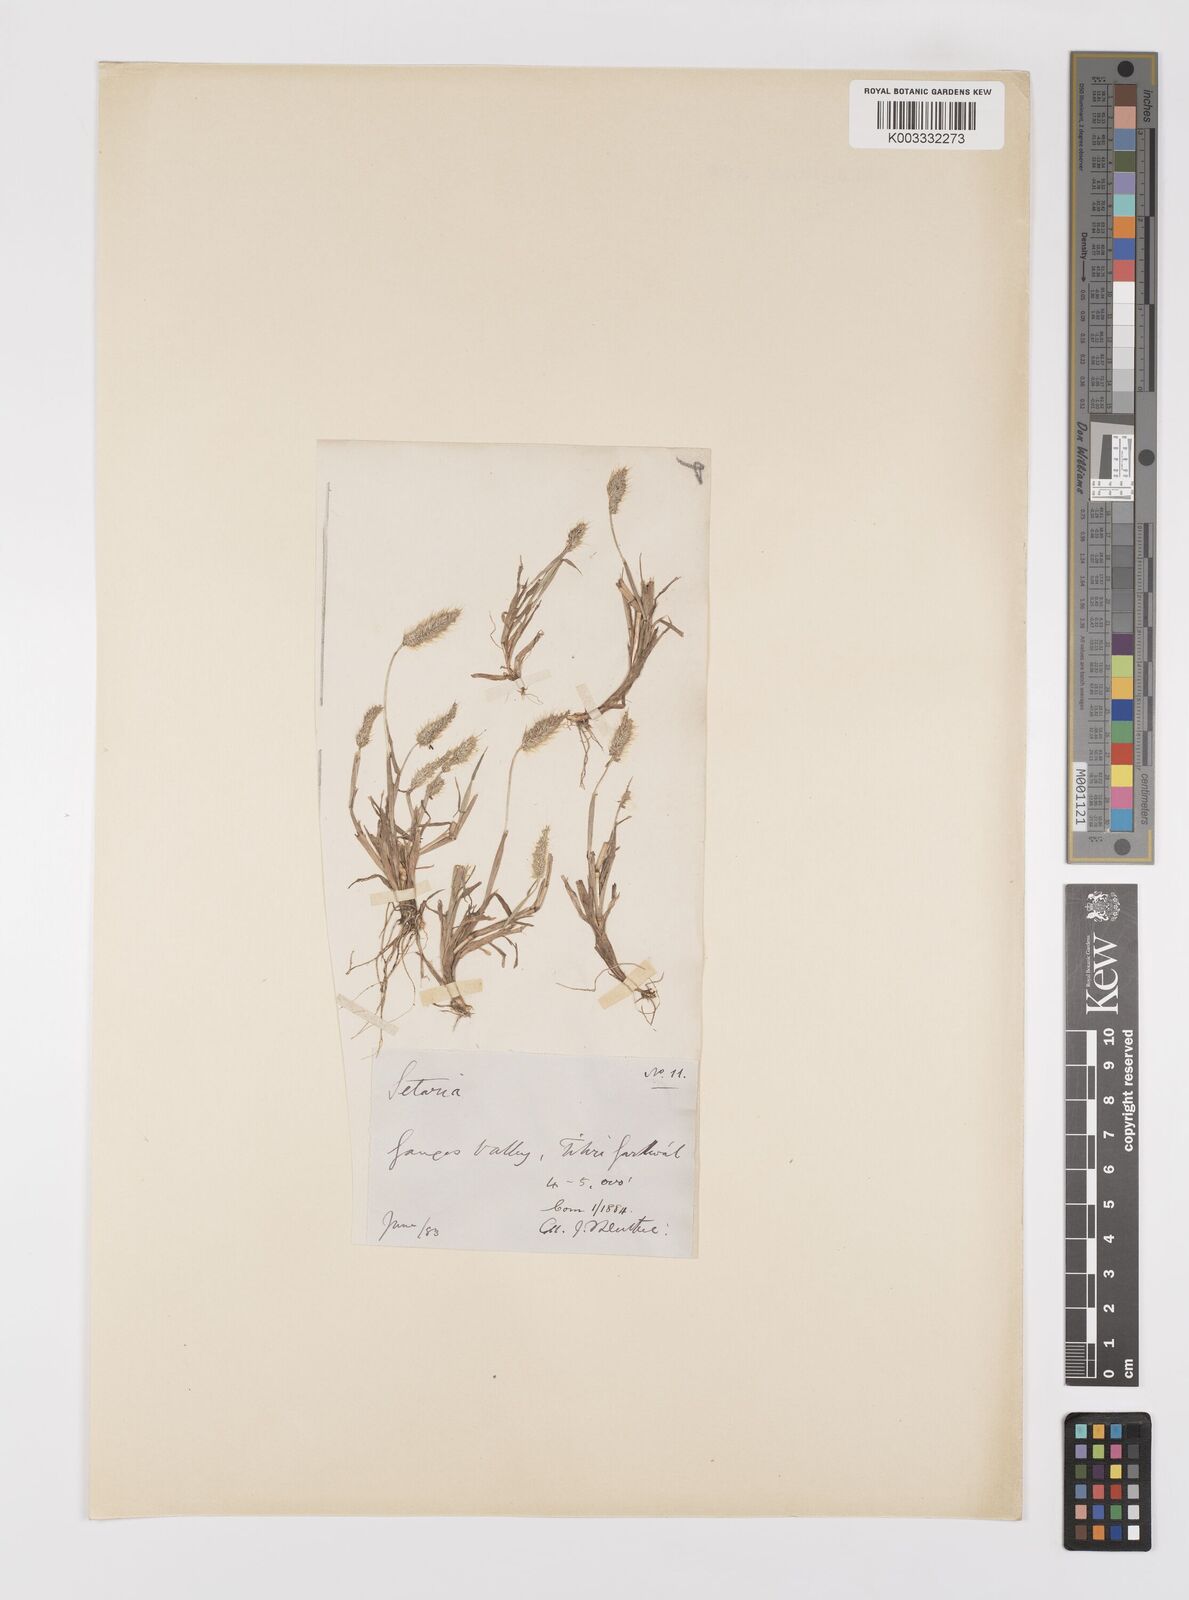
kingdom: Plantae
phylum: Tracheophyta
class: Liliopsida
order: Poales
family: Poaceae
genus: Polypogon
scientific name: Polypogon monspeliensis
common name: Annual rabbitsfoot grass
